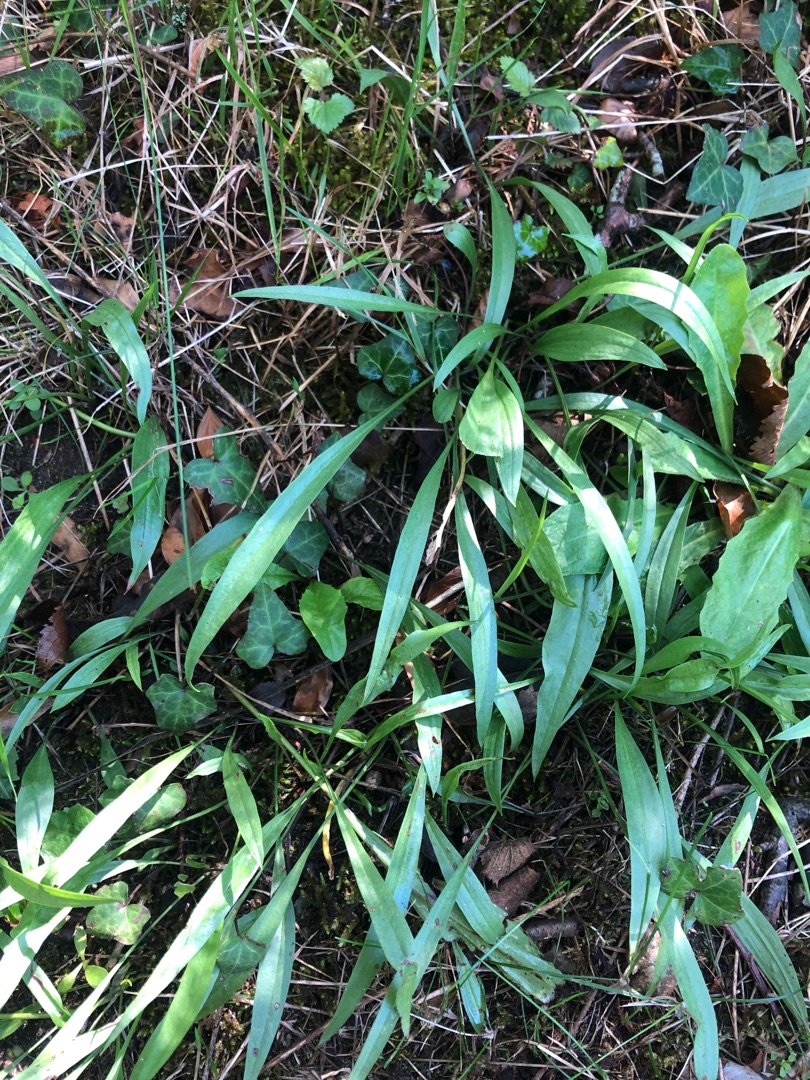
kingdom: Plantae
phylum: Tracheophyta
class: Magnoliopsida
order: Asterales
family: Asteraceae
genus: Scorzonera
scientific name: Scorzonera humilis
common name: Lav skorsoner
